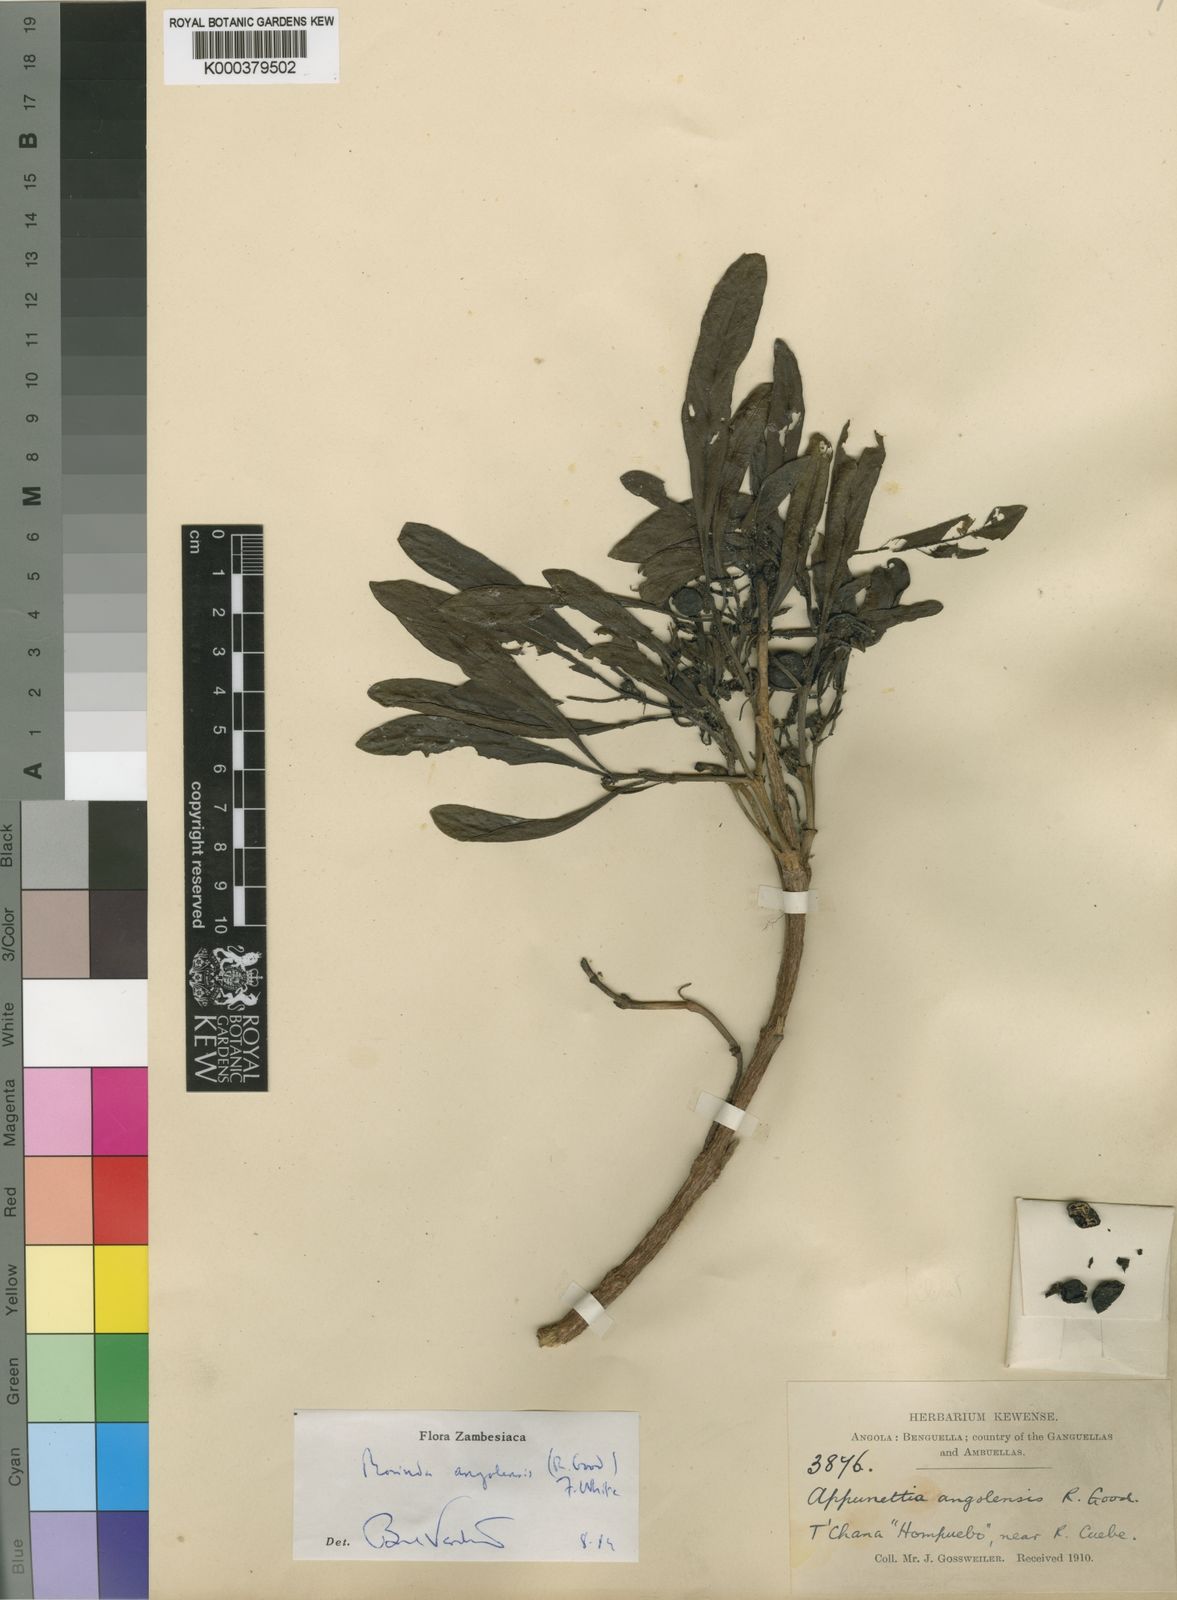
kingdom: Plantae
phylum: Tracheophyta
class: Magnoliopsida
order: Gentianales
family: Rubiaceae
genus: Morinda
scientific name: Morinda angolensis
